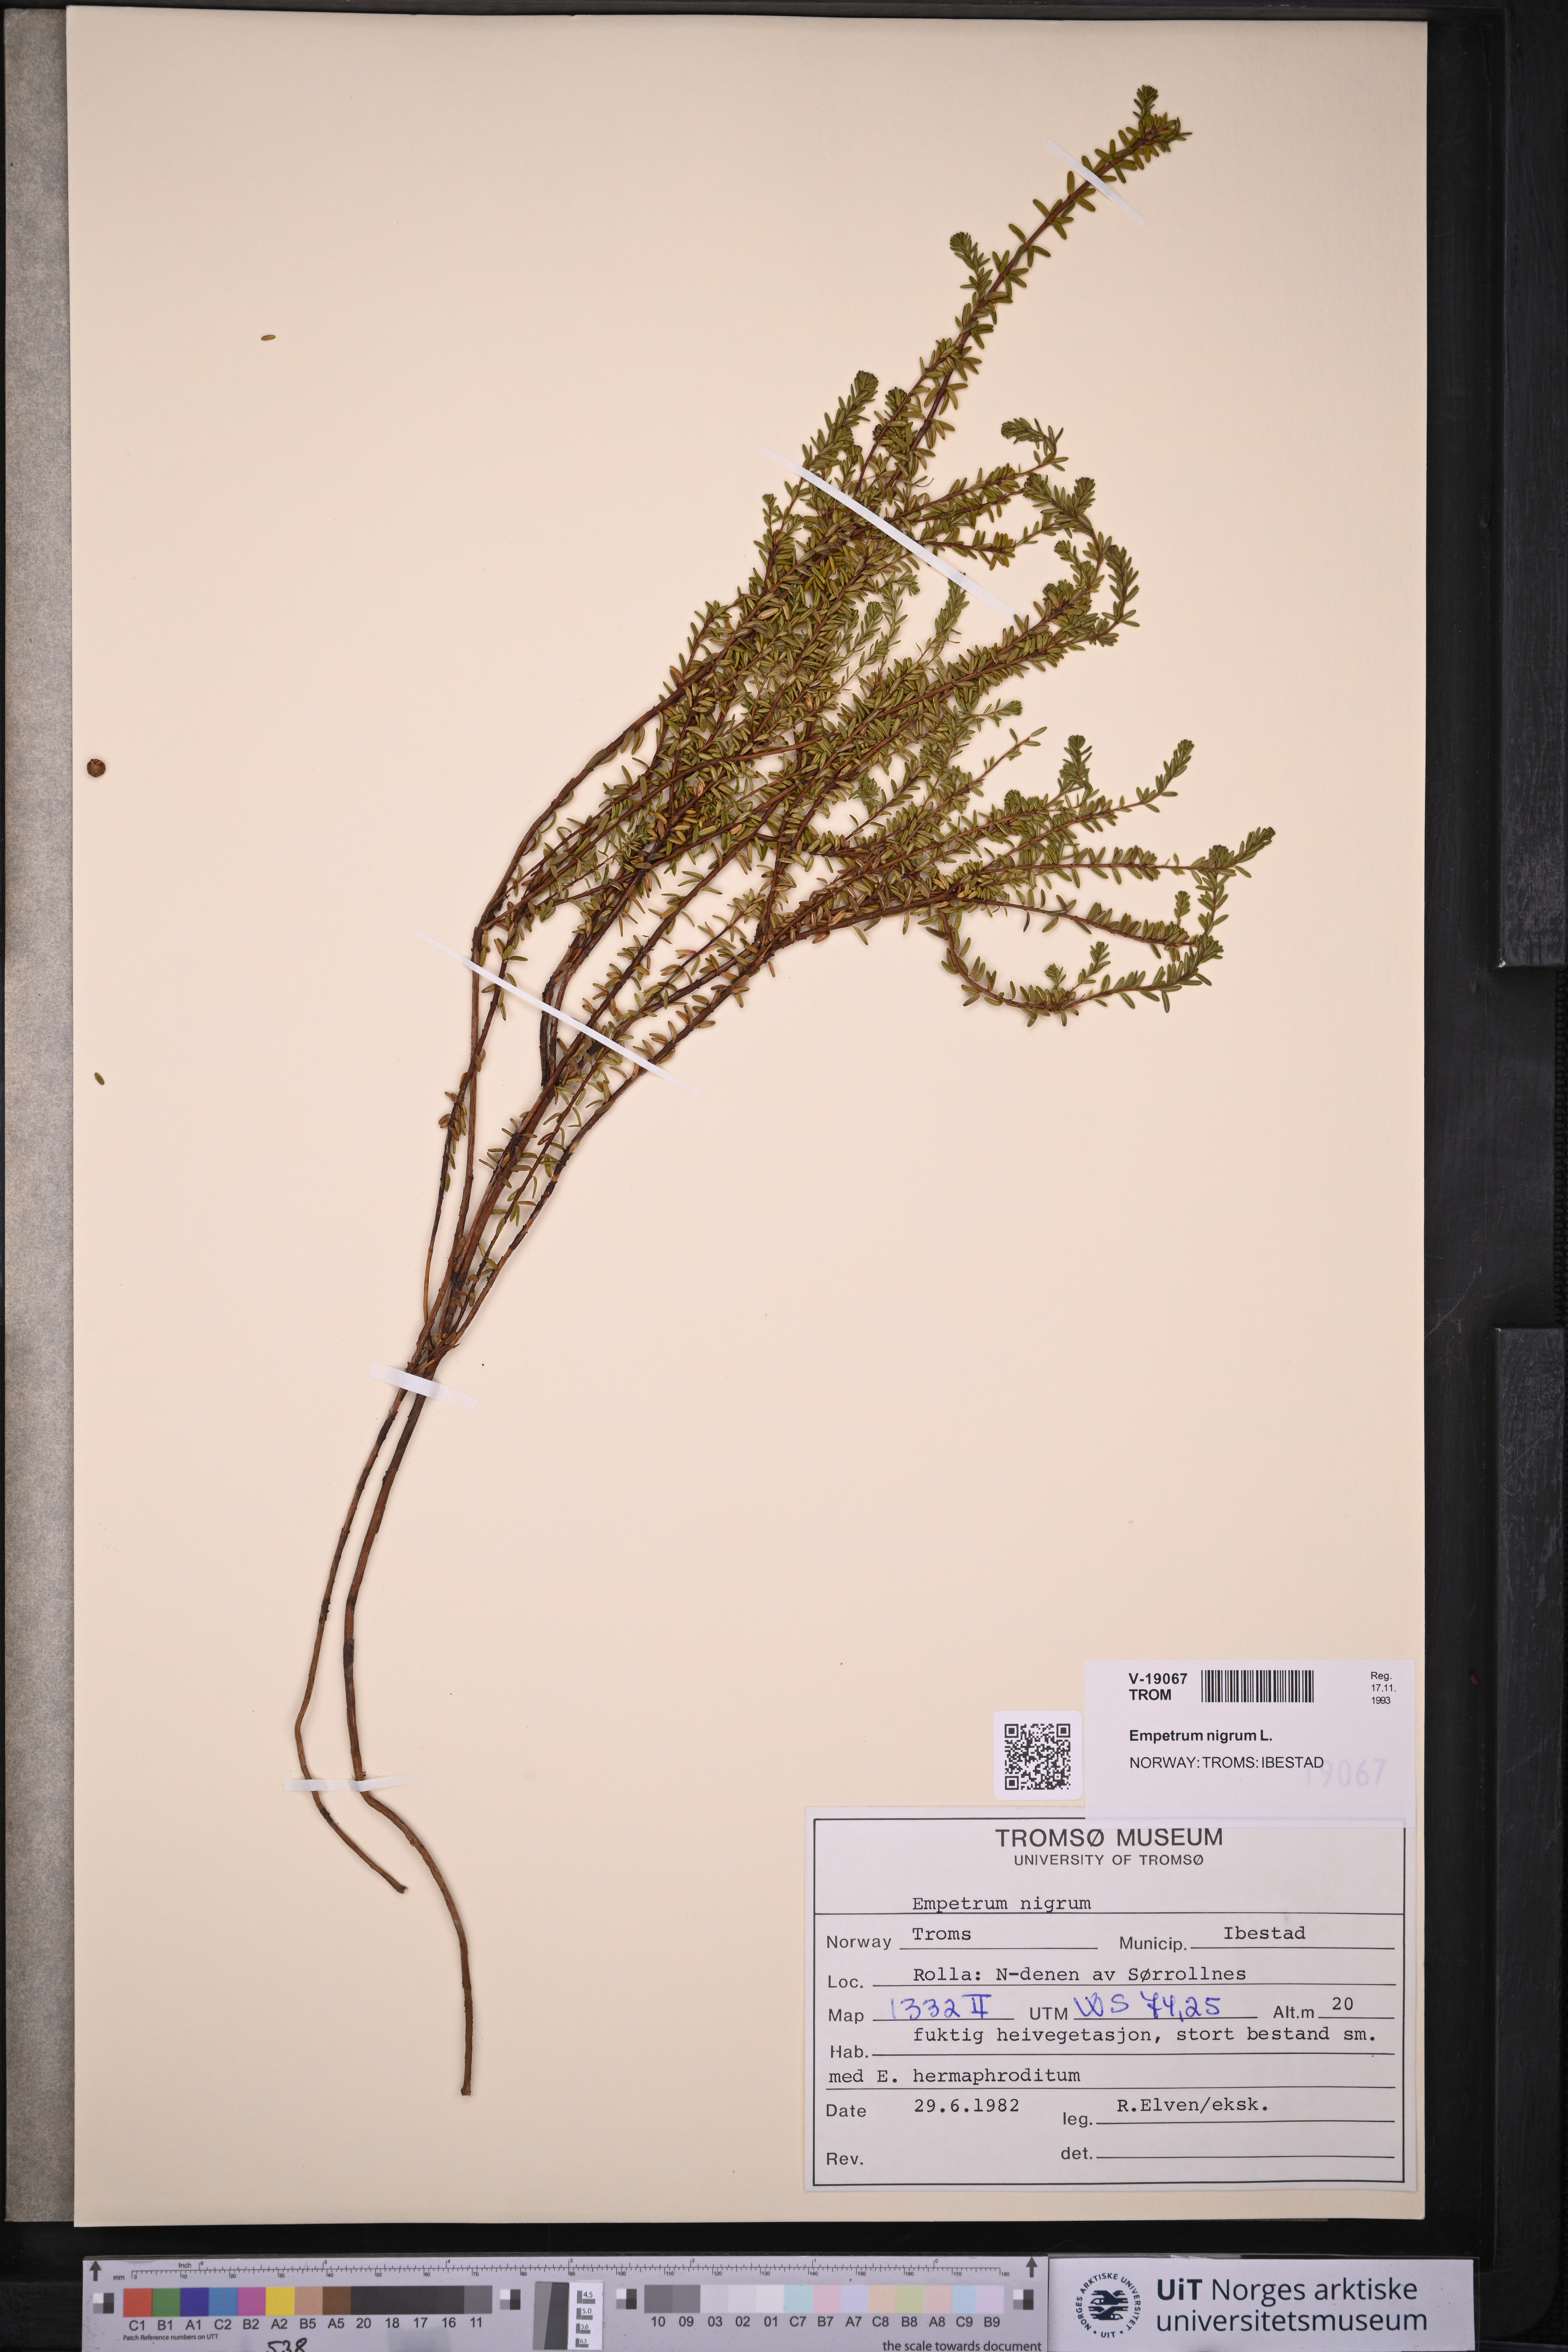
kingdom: Plantae
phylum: Tracheophyta
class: Magnoliopsida
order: Ericales
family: Ericaceae
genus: Empetrum
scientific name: Empetrum nigrum
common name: Black crowberry
